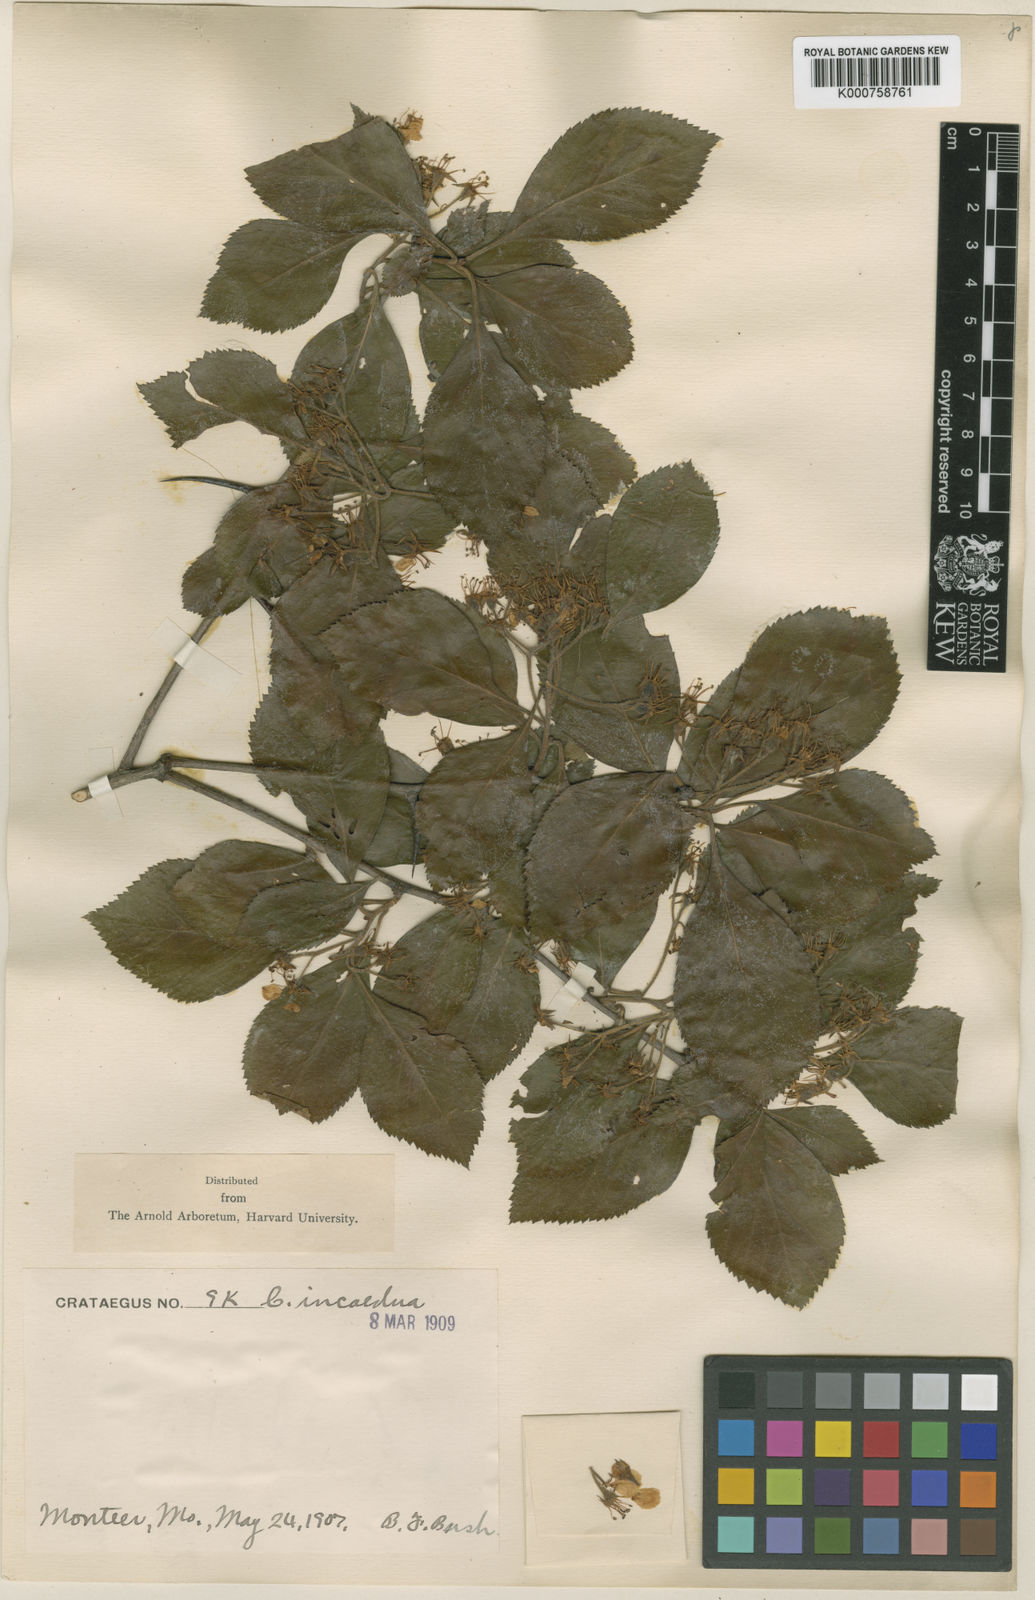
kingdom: Plantae
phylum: Tracheophyta
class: Magnoliopsida
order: Rosales
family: Rosaceae
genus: Crataegus
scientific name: Crataegus incaedua
